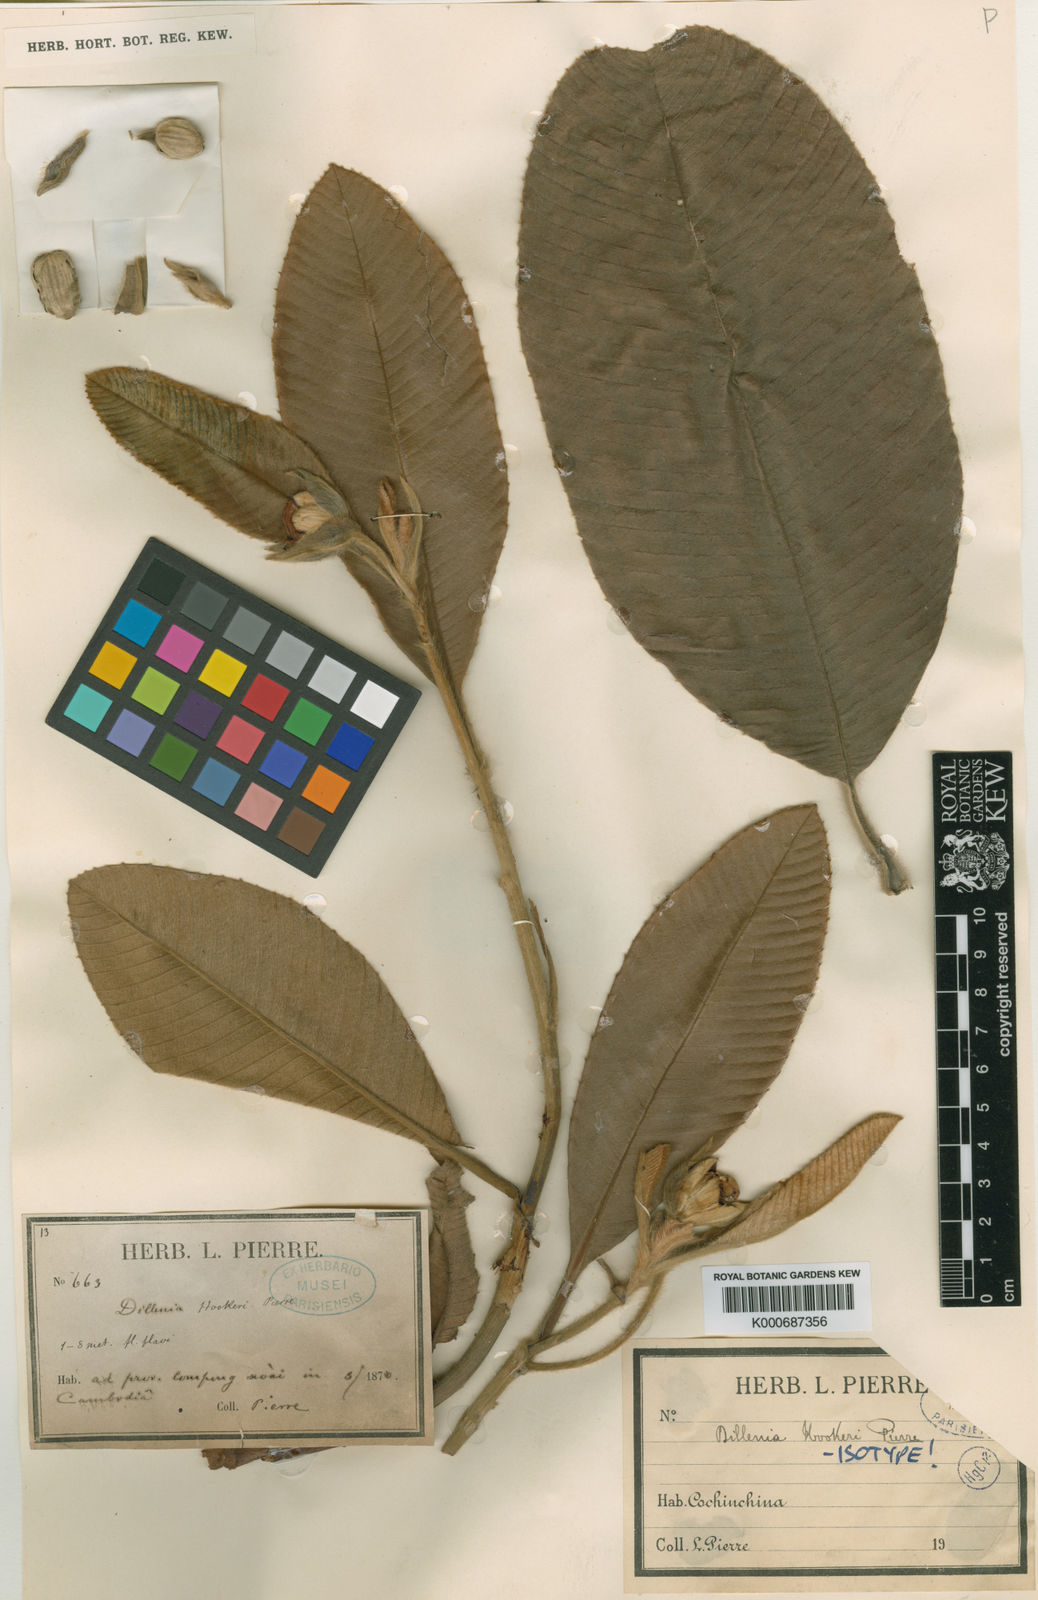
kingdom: Plantae
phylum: Tracheophyta
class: Magnoliopsida
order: Dilleniales
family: Dilleniaceae
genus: Dillenia
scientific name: Dillenia hookeri
